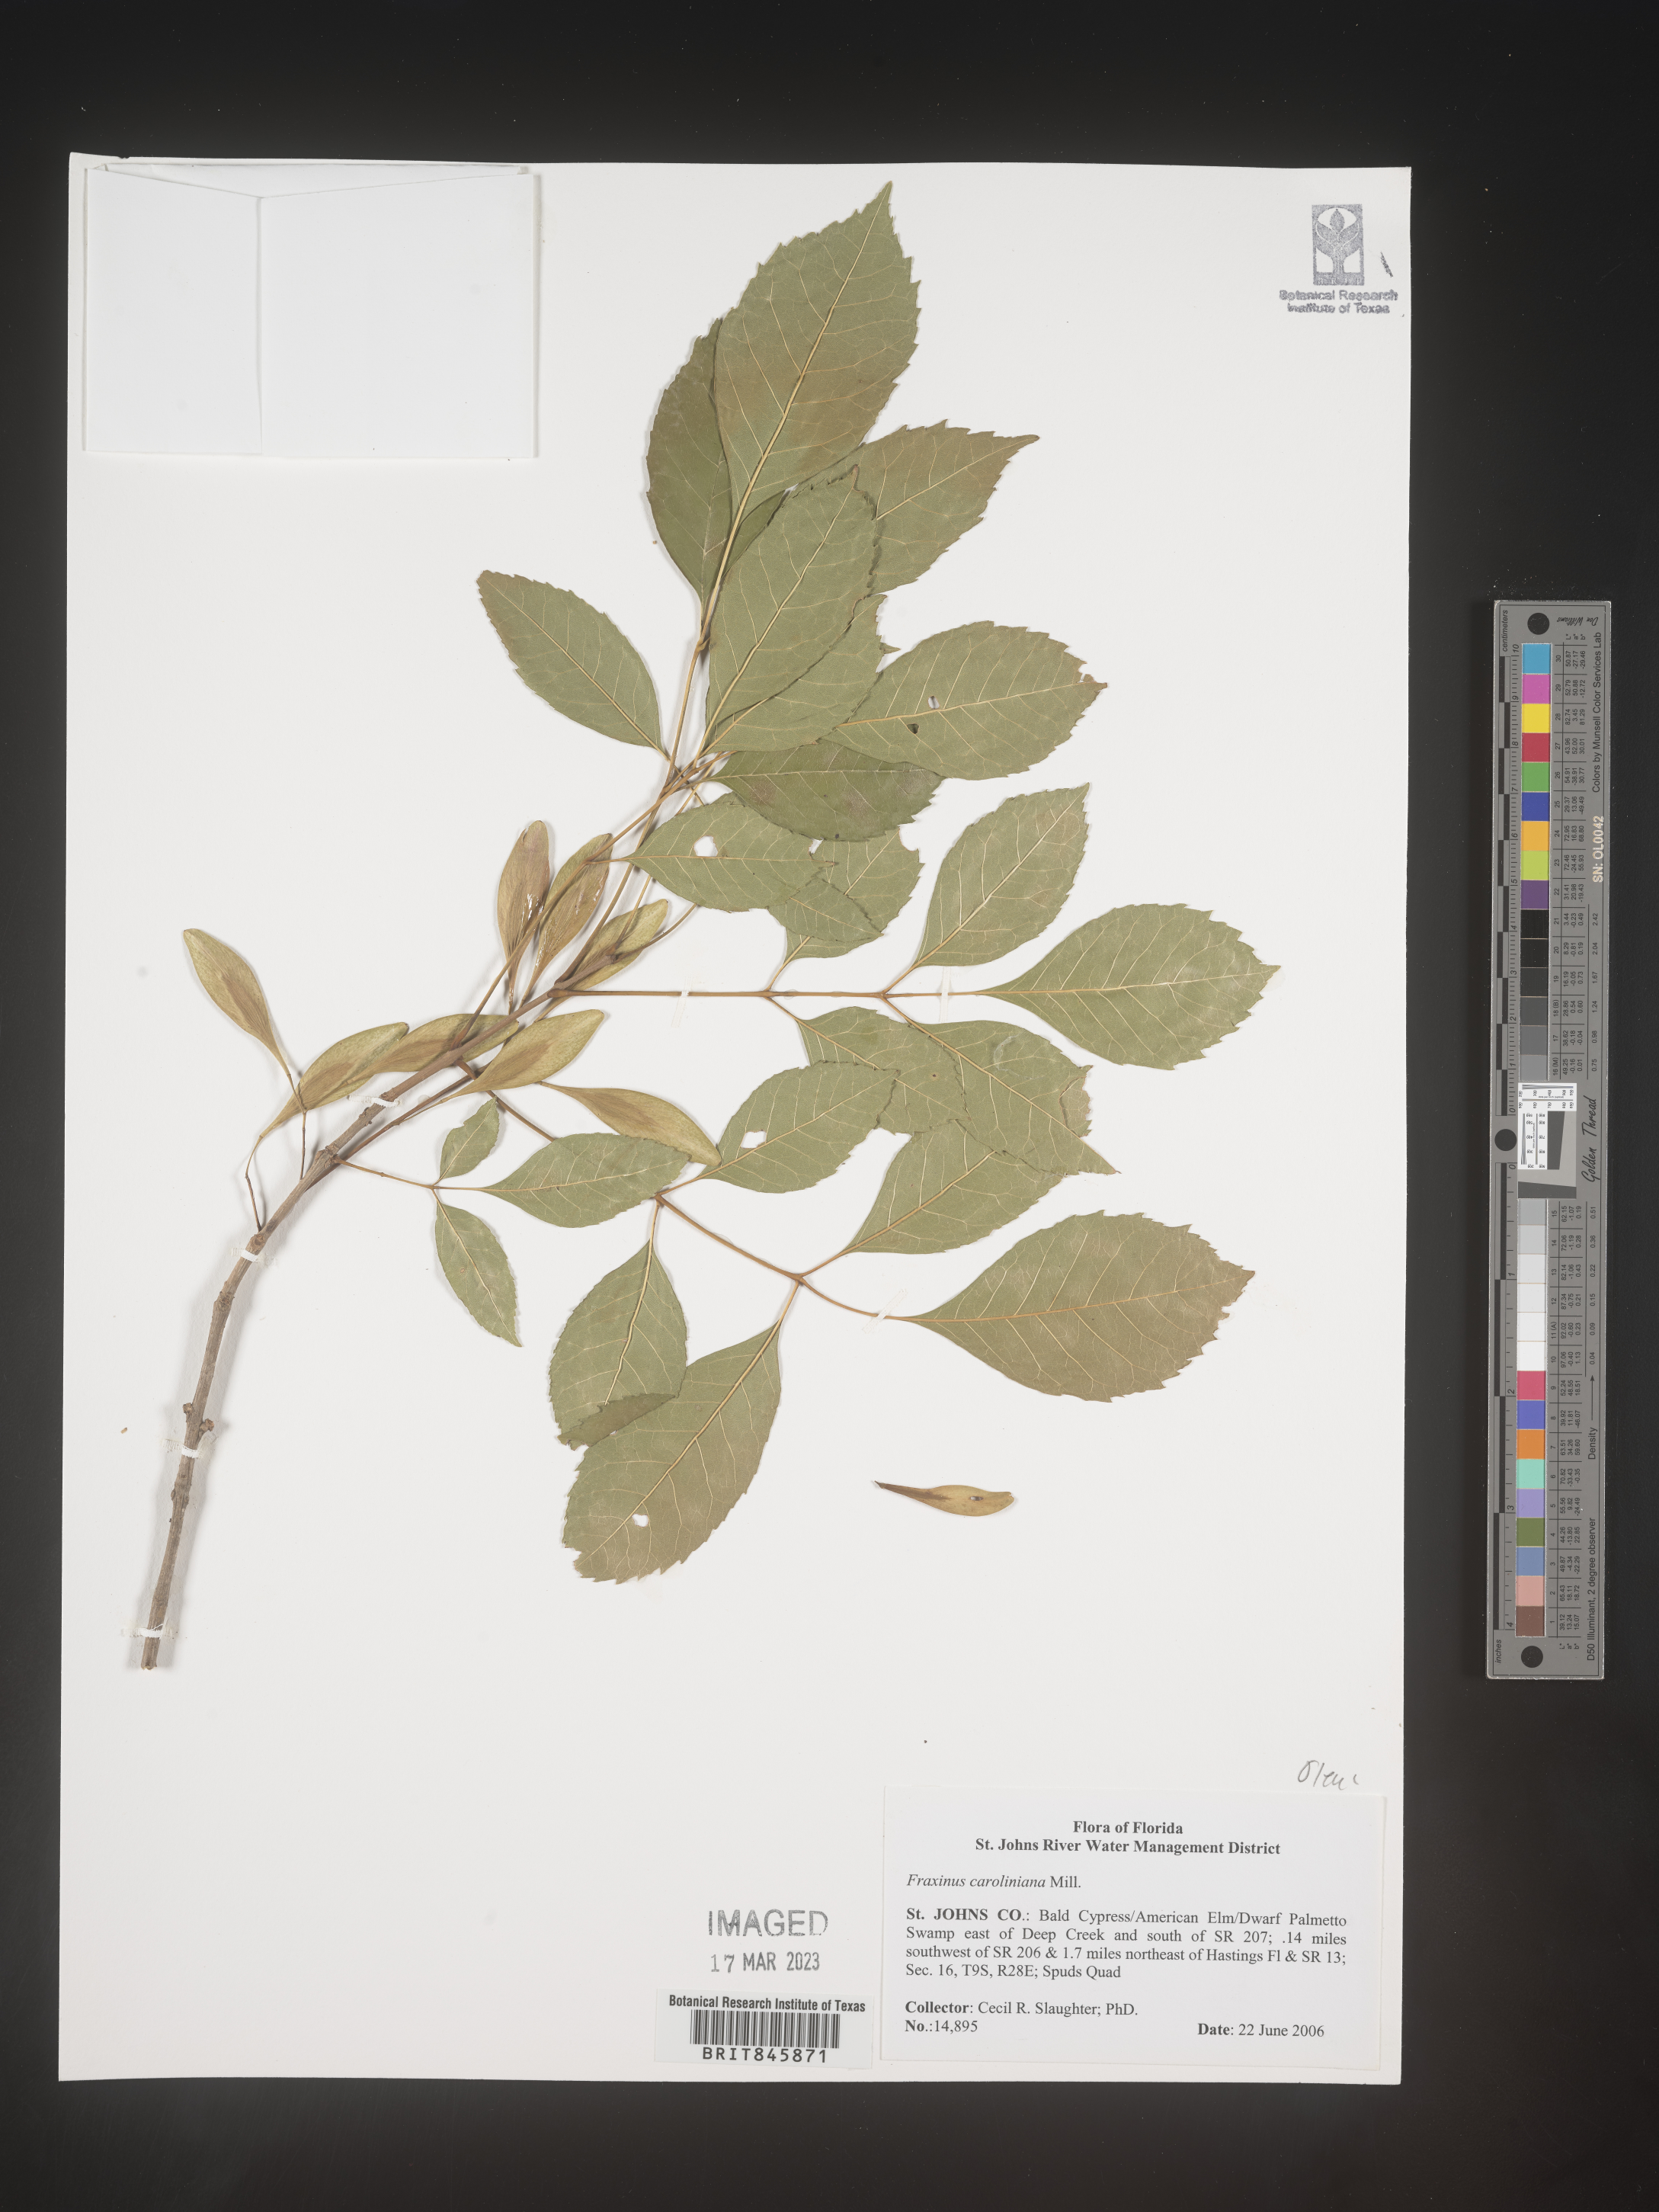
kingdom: Plantae
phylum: Tracheophyta
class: Magnoliopsida
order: Lamiales
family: Oleaceae
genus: Fraxinus
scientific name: Fraxinus caroliniana
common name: Carolina ash
